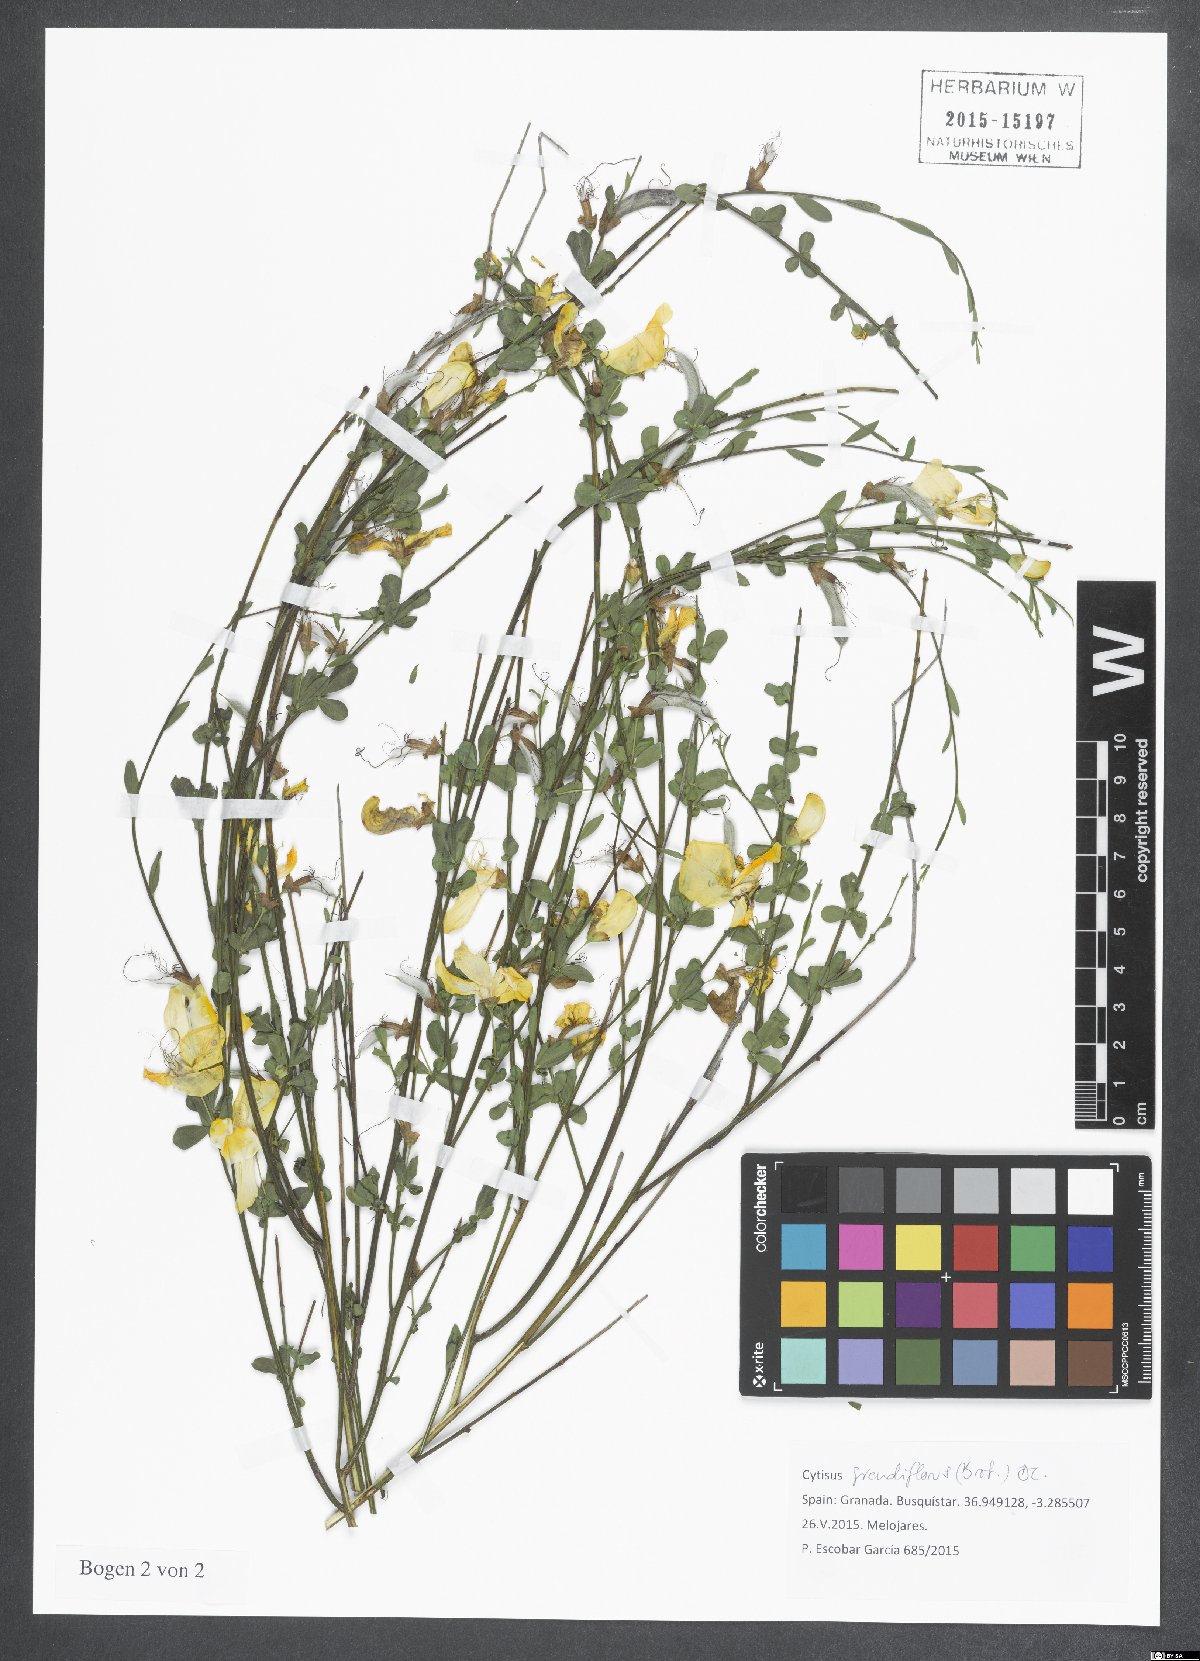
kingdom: Plantae
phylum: Tracheophyta
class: Magnoliopsida
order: Fabales
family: Fabaceae
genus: Cytisus
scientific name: Cytisus grandiflorus
